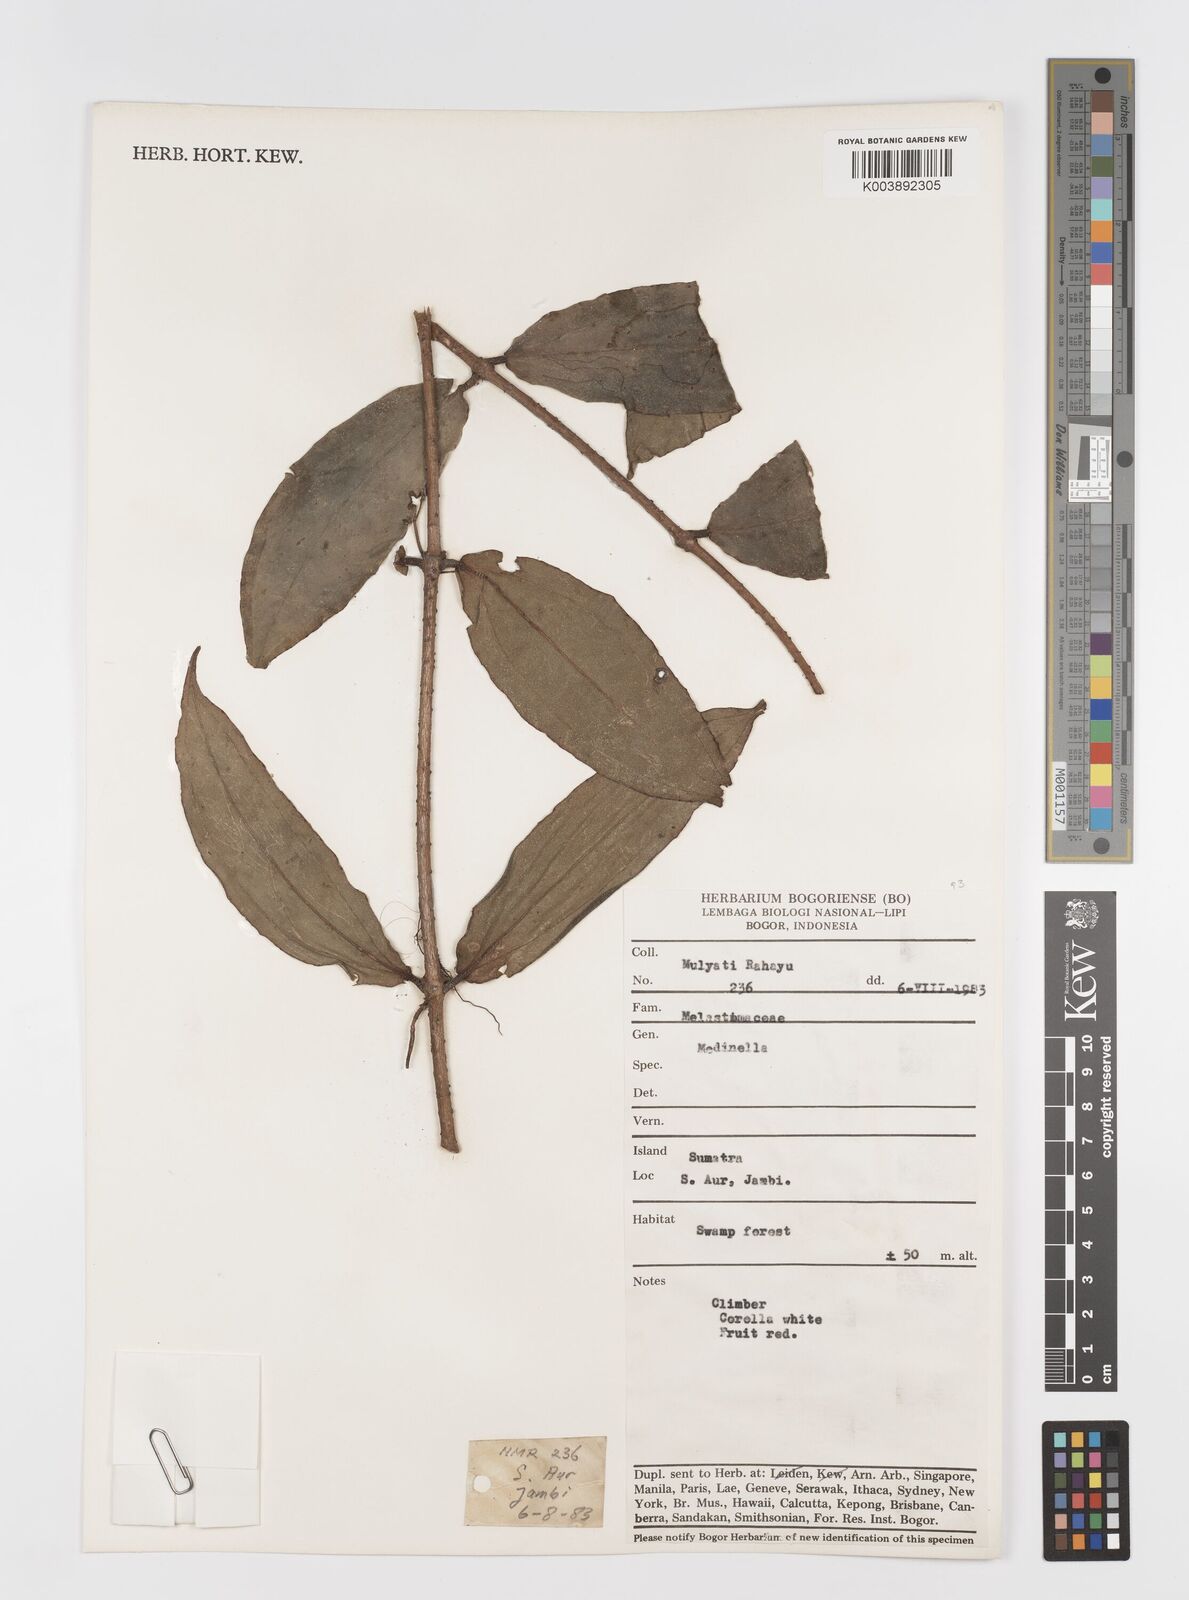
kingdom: Plantae
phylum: Tracheophyta
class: Magnoliopsida
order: Myrtales
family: Melastomataceae
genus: Medinilla
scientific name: Medinilla
